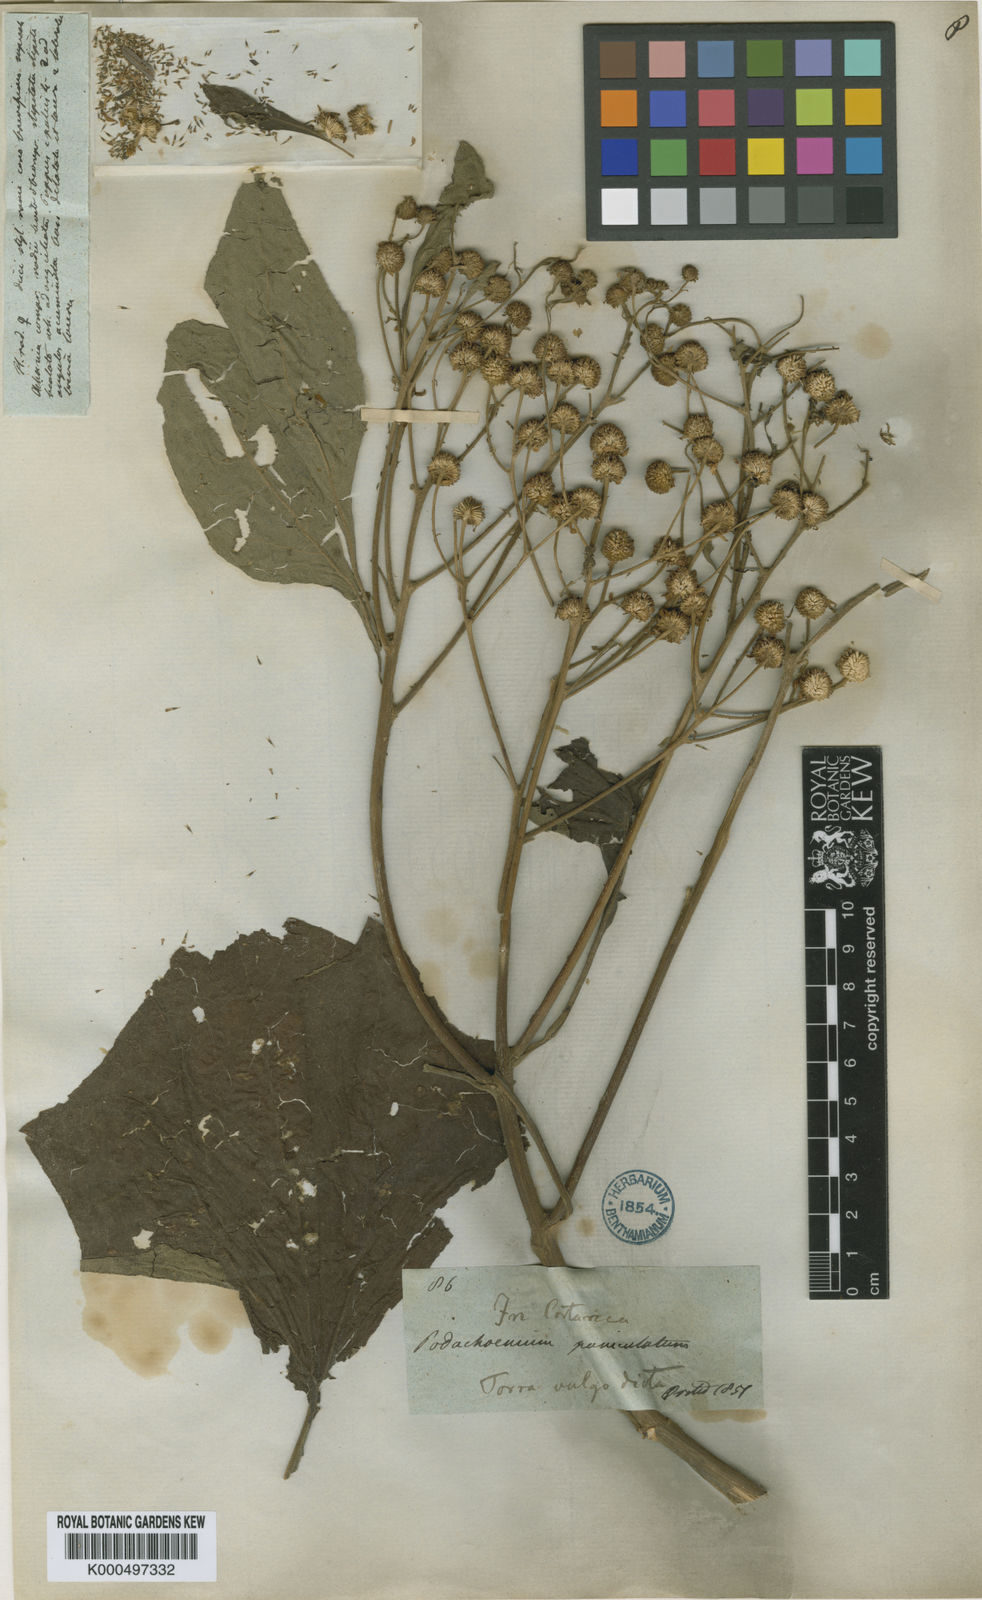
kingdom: Plantae
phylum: Tracheophyta
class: Magnoliopsida
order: Asterales
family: Asteraceae
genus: Podachaenium
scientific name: Podachaenium eminens
